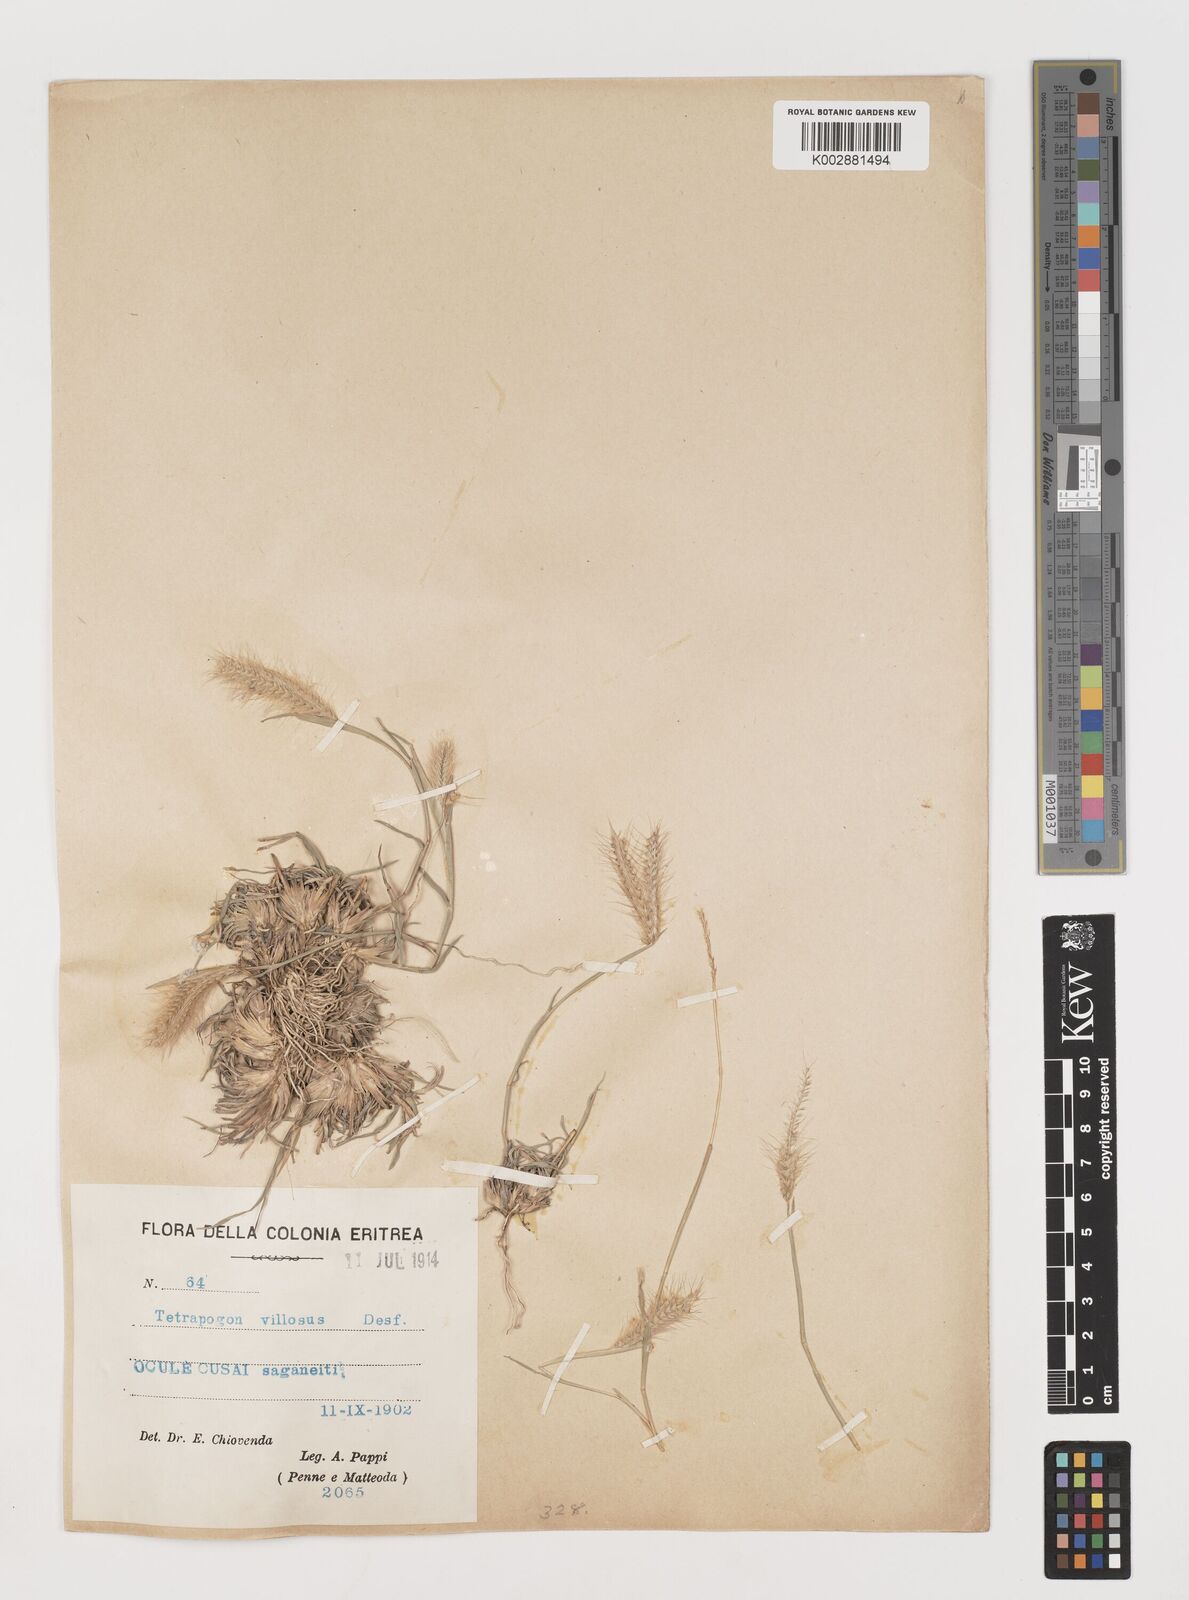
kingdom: Plantae
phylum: Tracheophyta
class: Liliopsida
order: Poales
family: Poaceae
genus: Tetrapogon
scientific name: Tetrapogon villosus
